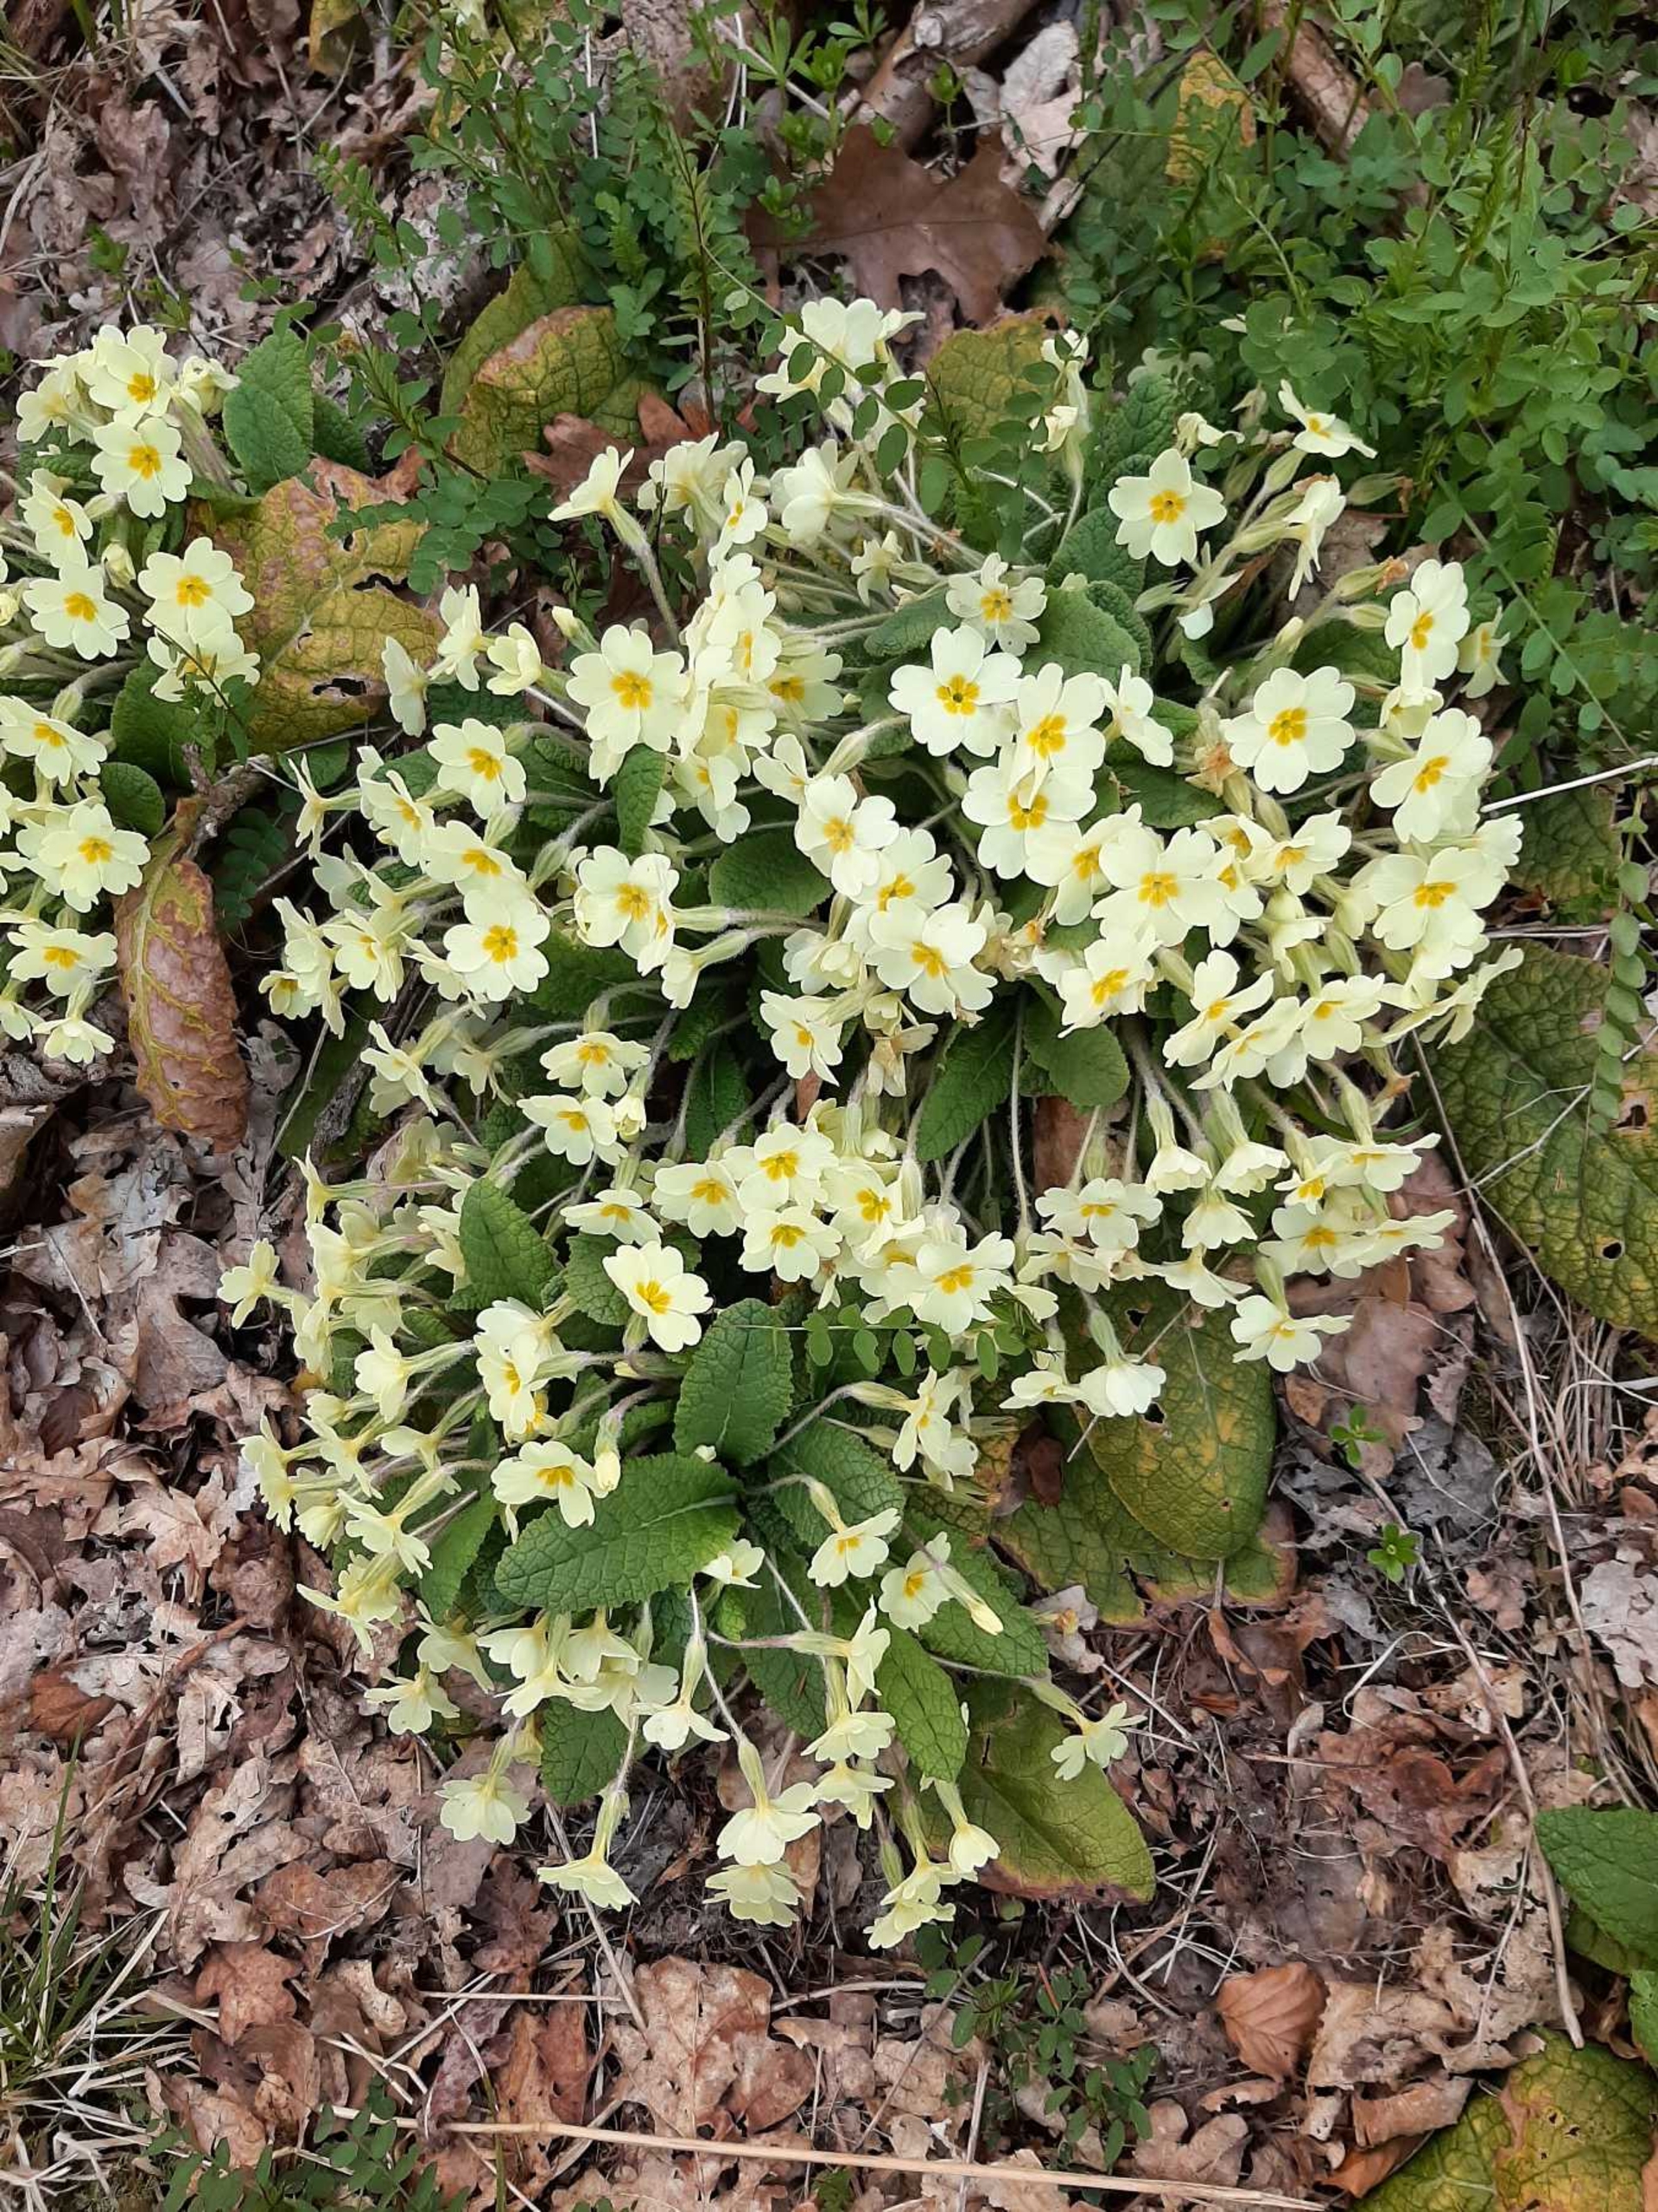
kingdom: Plantae
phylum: Tracheophyta
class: Magnoliopsida
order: Ericales
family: Primulaceae
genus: Primula
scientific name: Primula vulgaris
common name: Storblomstret kodriver
